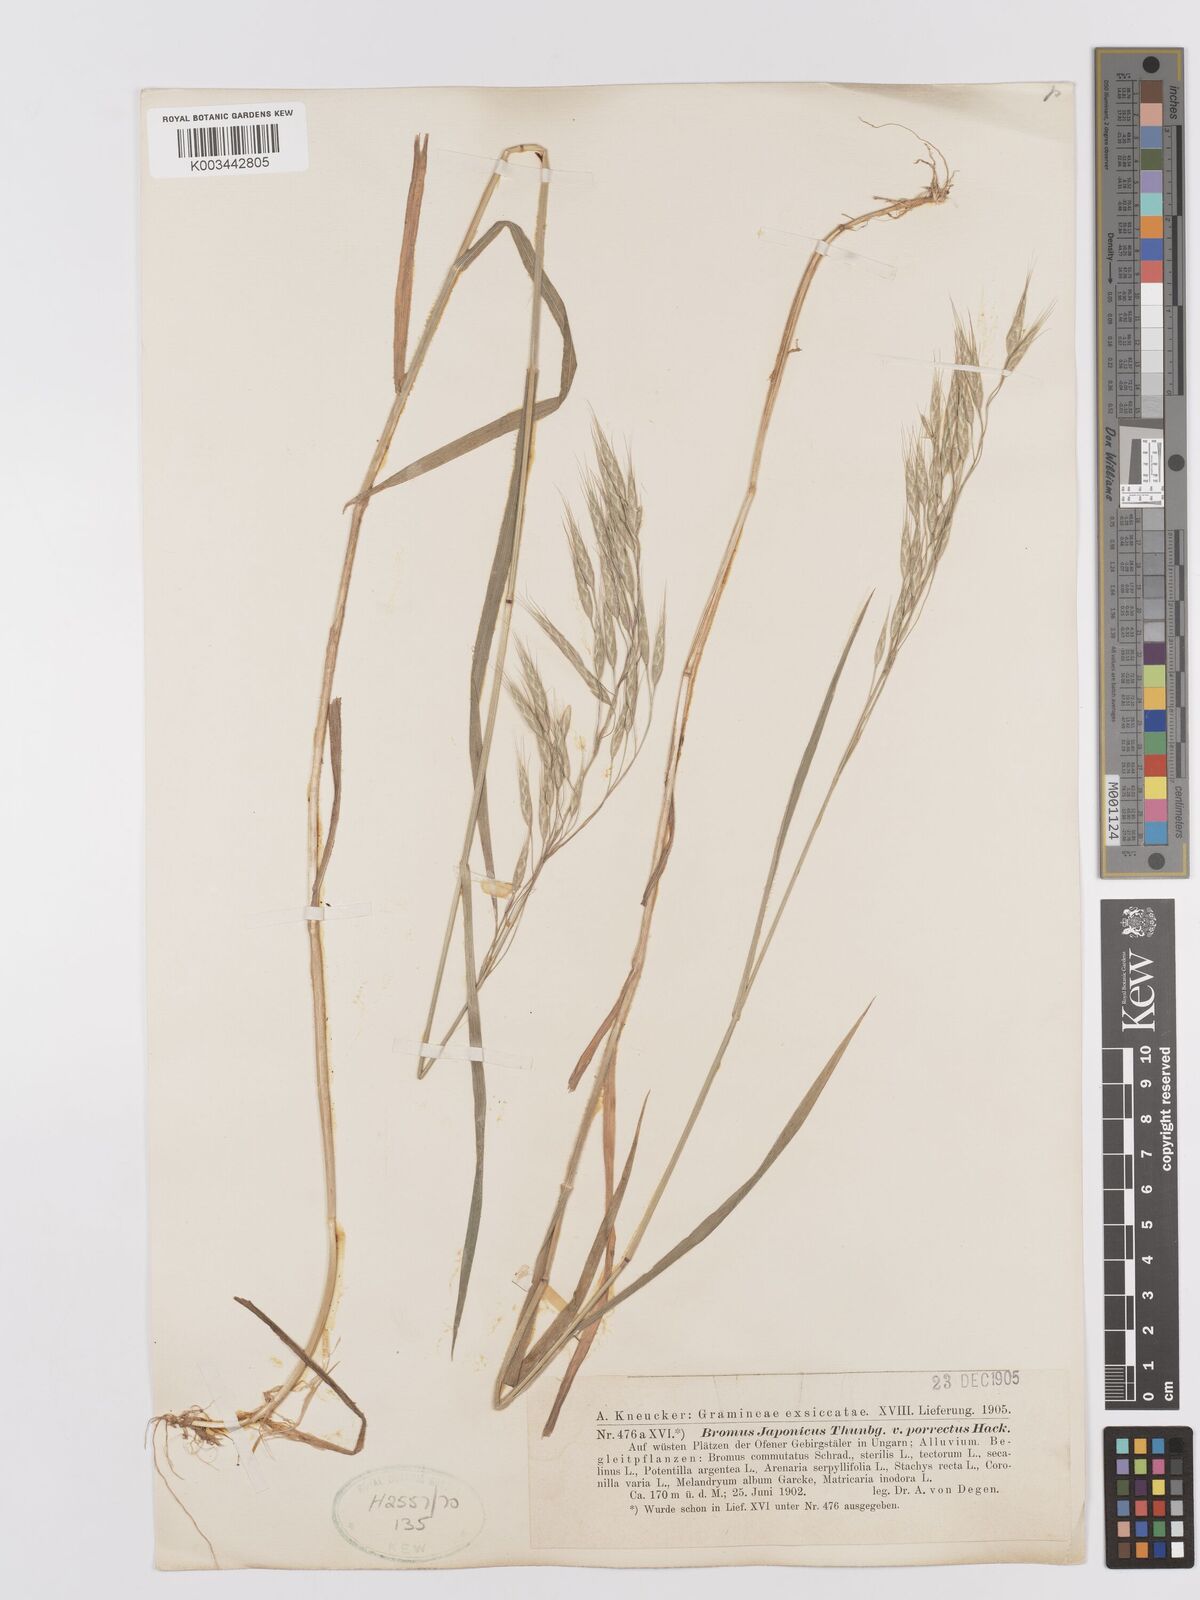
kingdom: Plantae
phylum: Tracheophyta
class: Liliopsida
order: Poales
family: Poaceae
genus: Bromus
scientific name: Bromus japonicus
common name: Japanese brome
